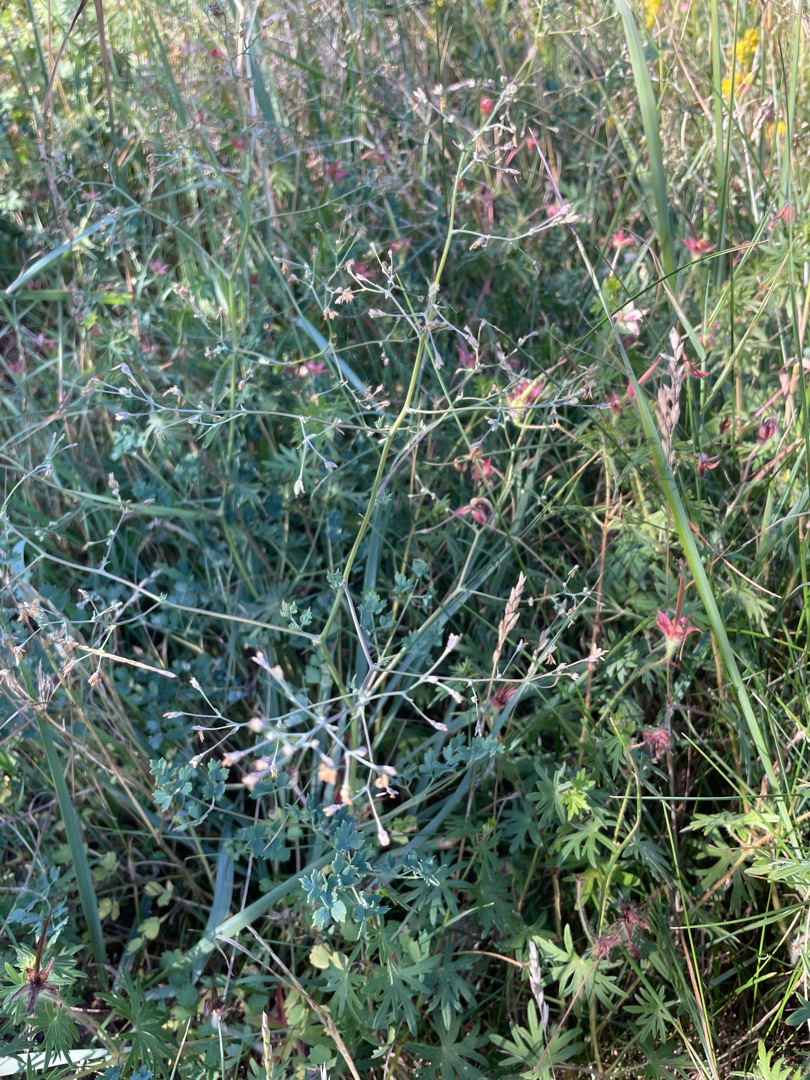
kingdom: Plantae
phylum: Tracheophyta
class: Magnoliopsida
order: Ranunculales
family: Ranunculaceae
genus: Thalictrum
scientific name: Thalictrum minus
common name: Bugtet frøstjerne
